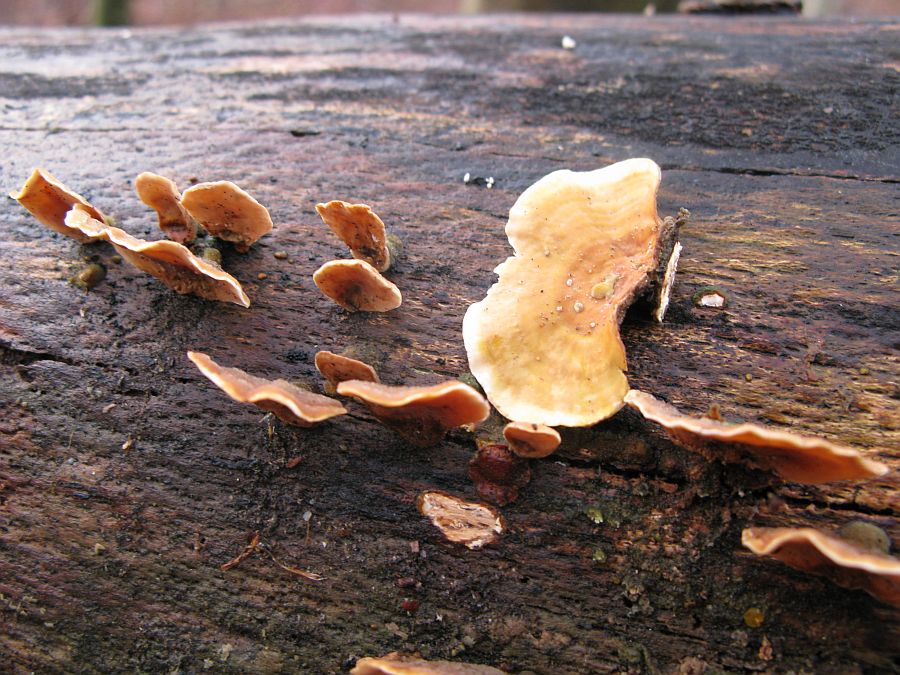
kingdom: Fungi
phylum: Basidiomycota
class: Agaricomycetes
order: Russulales
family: Stereaceae
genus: Stereum
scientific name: Stereum subtomentosum
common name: smuk lædersvamp
